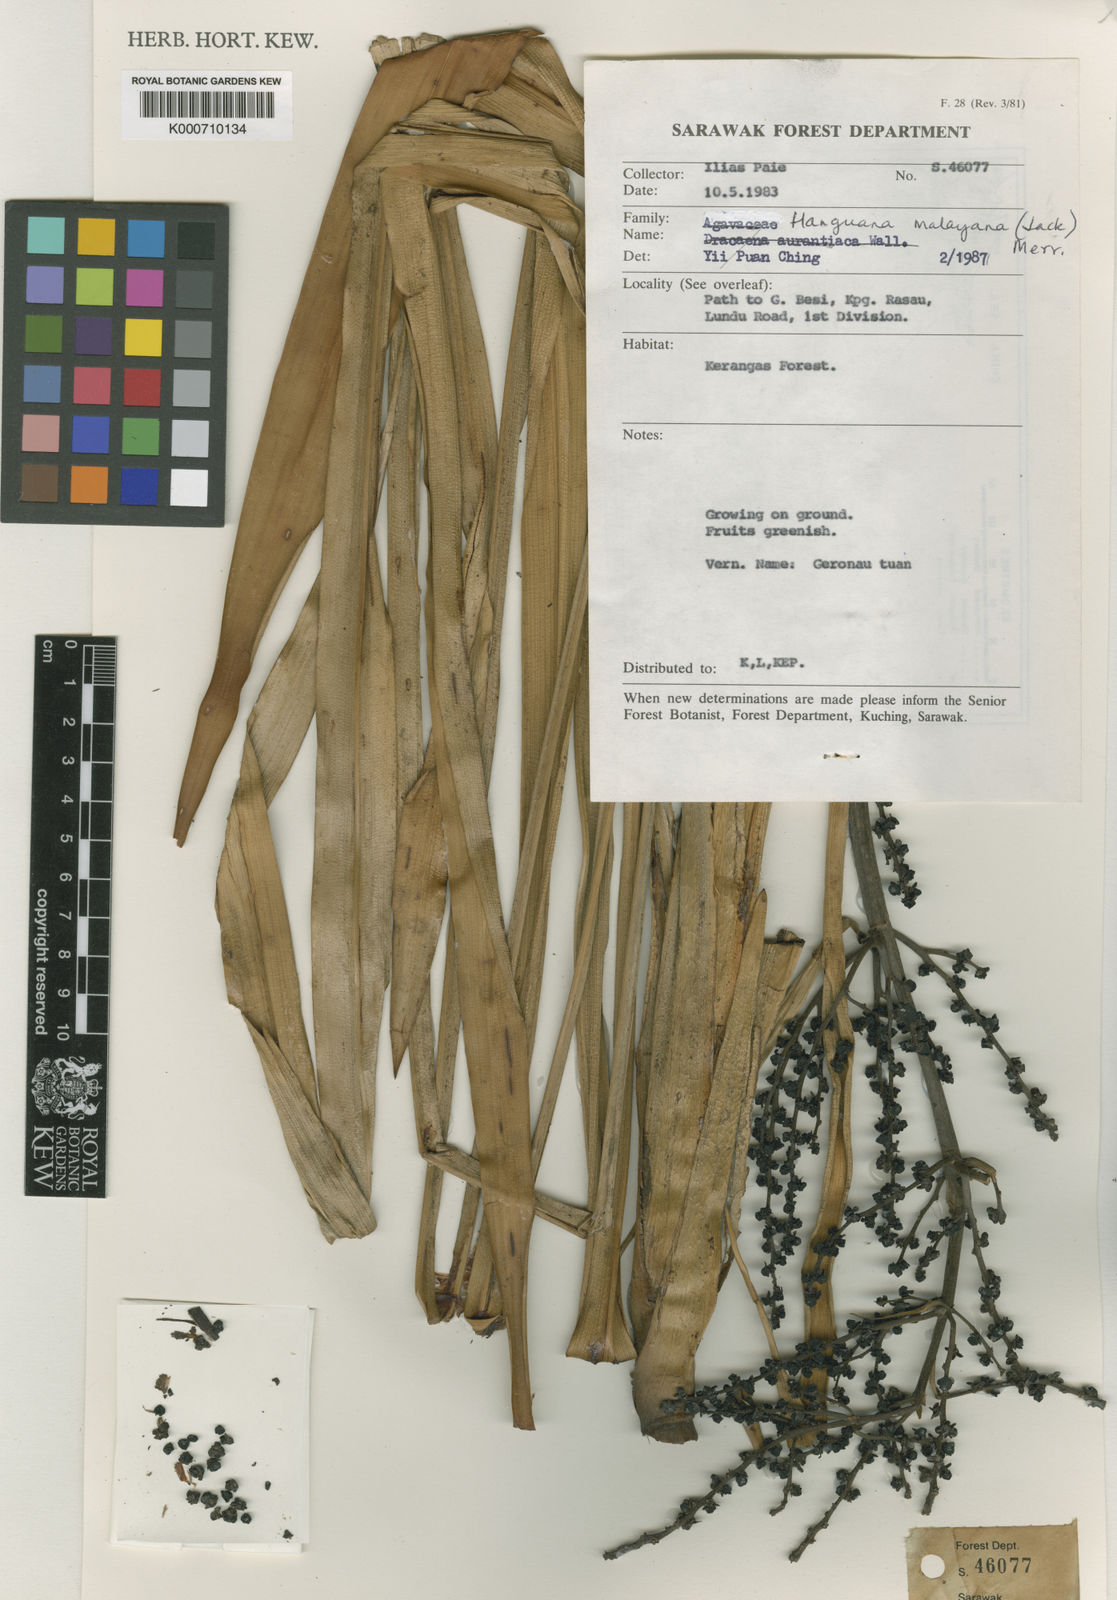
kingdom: Plantae
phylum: Tracheophyta
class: Liliopsida
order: Commelinales
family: Hanguanaceae
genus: Hanguana
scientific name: Hanguana malayana
